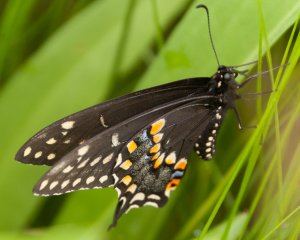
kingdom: Animalia
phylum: Arthropoda
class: Insecta
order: Lepidoptera
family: Papilionidae
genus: Papilio
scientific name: Papilio polyxenes
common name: Black Swallowtail
